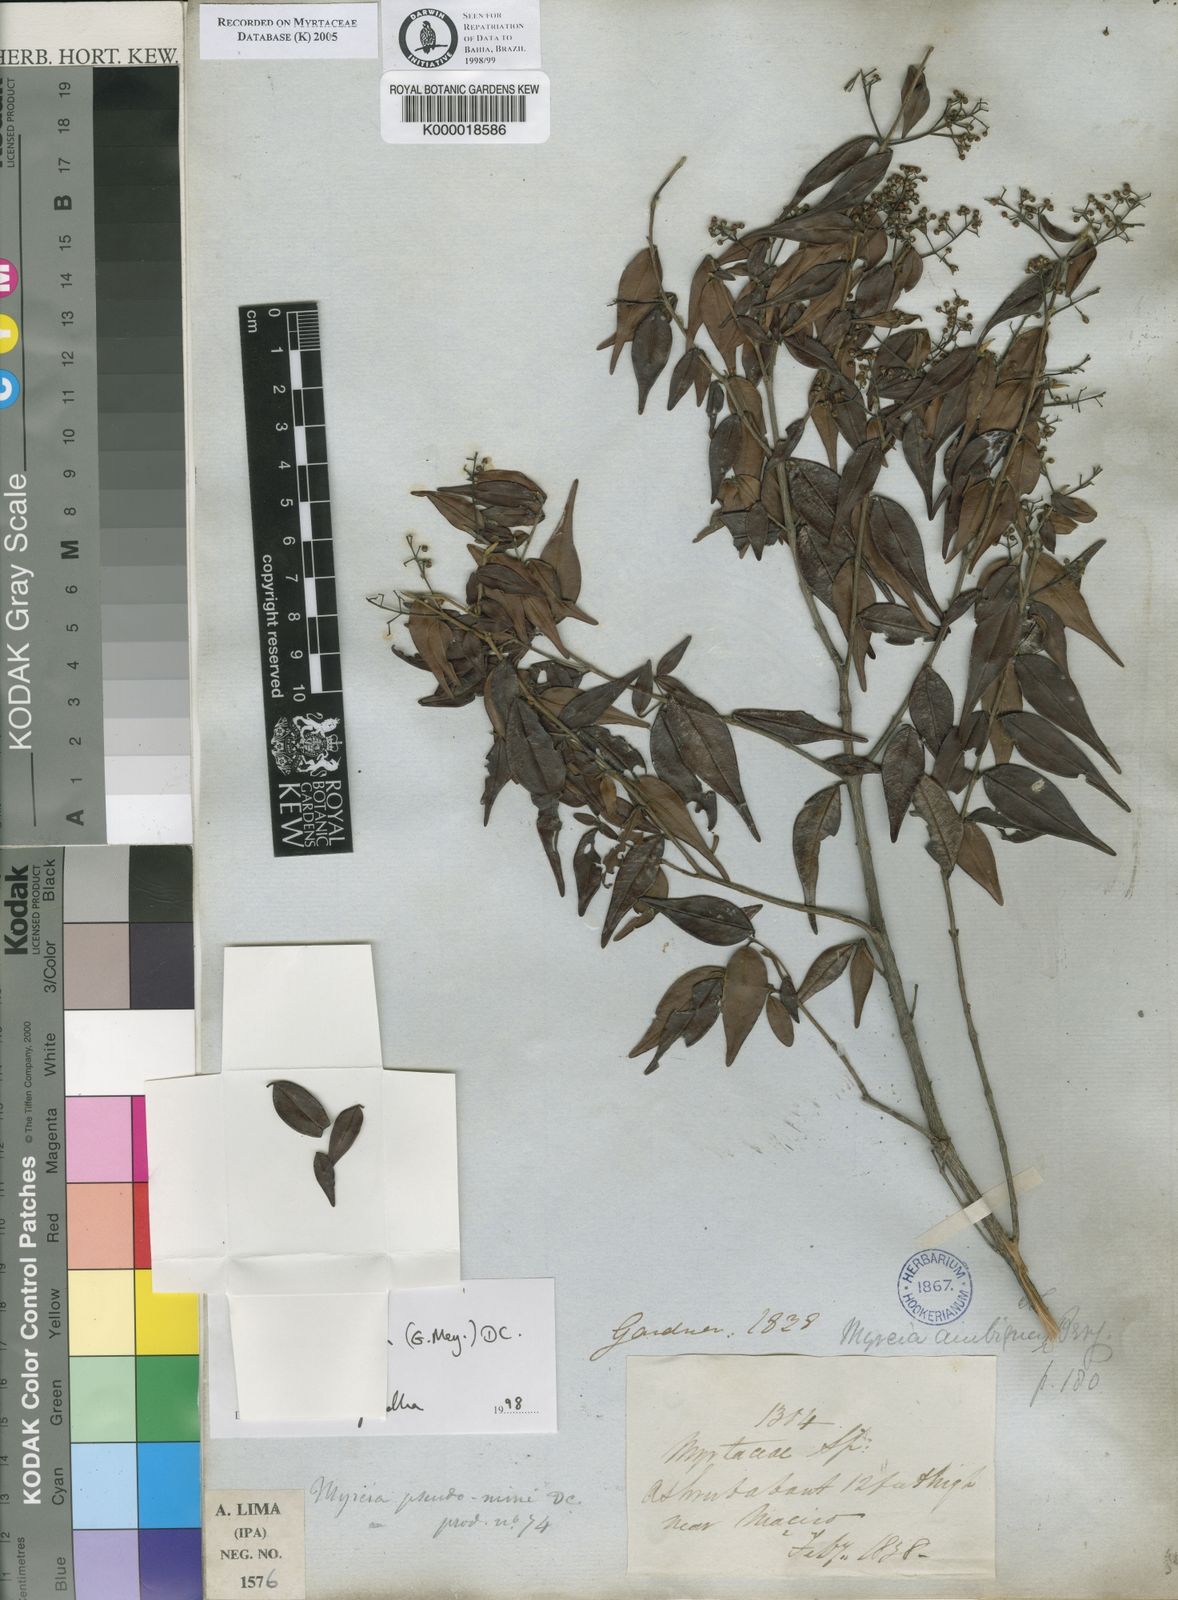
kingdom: Plantae
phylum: Tracheophyta
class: Magnoliopsida
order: Myrtales
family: Myrtaceae
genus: Myrcia
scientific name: Myrcia sylvatica
